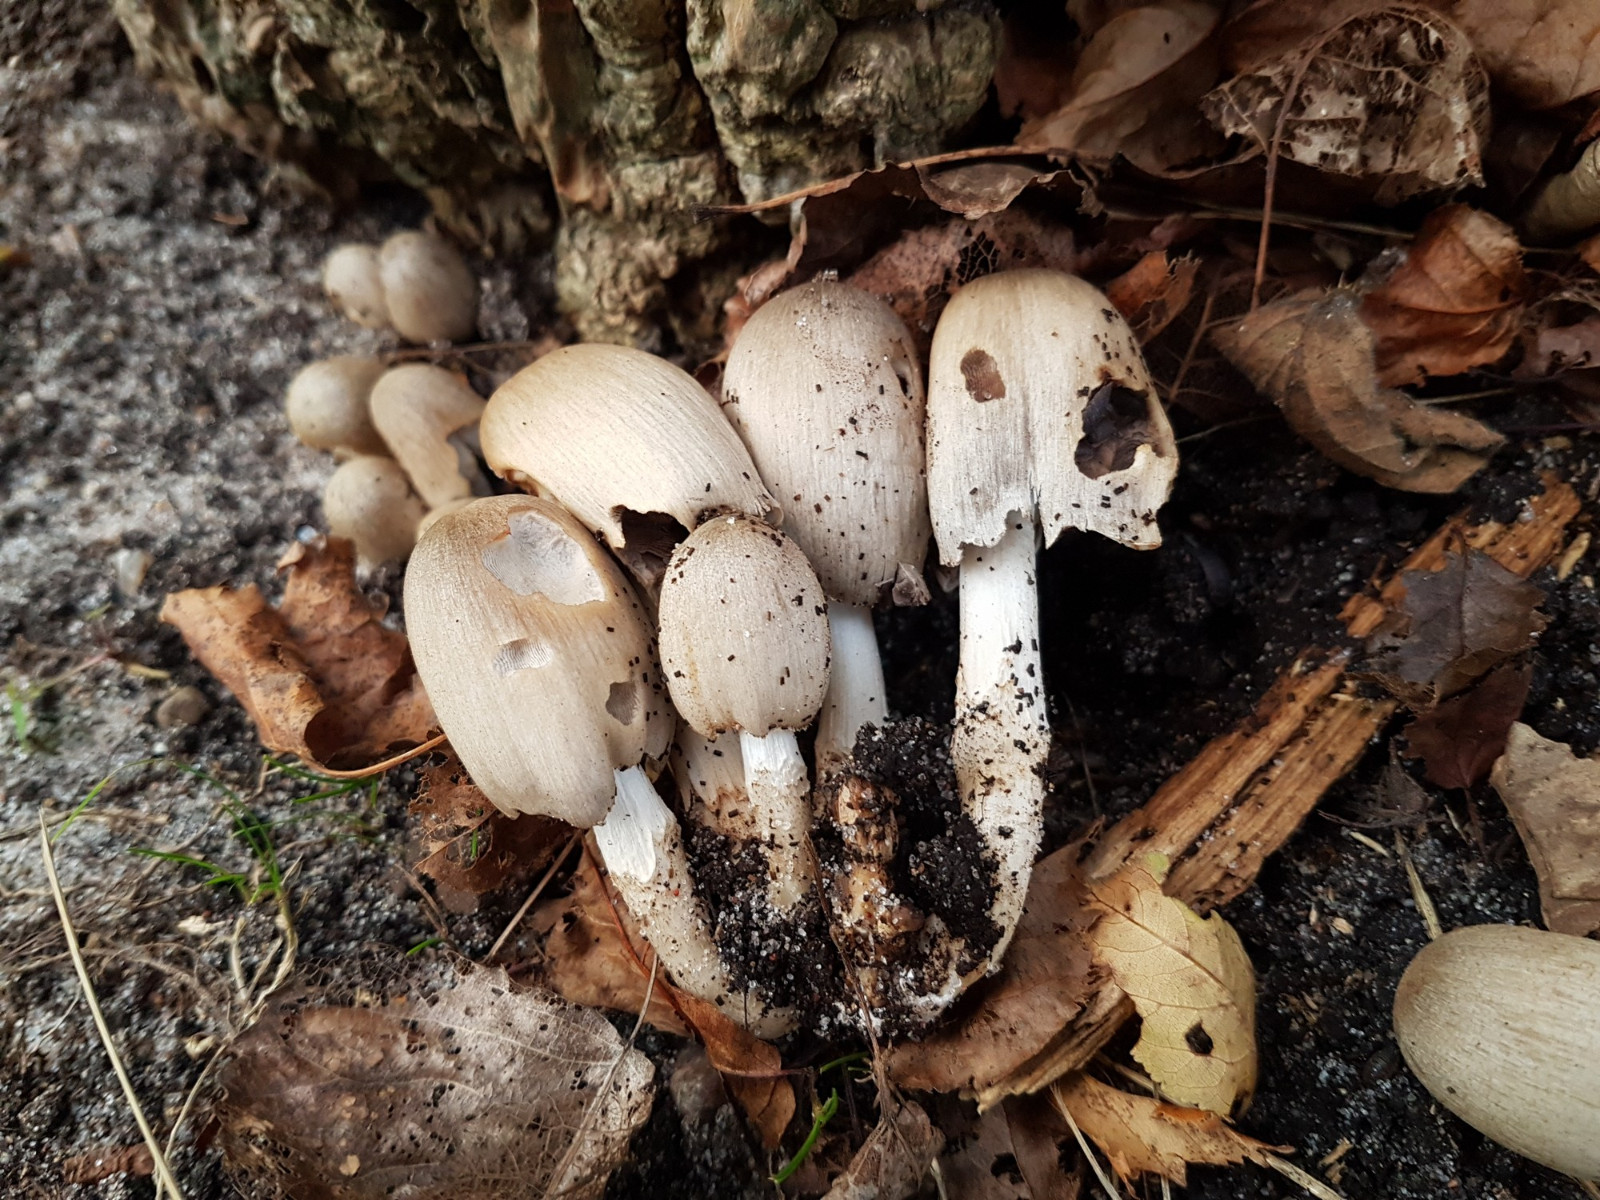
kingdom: Fungi
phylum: Basidiomycota
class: Agaricomycetes
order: Agaricales
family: Psathyrellaceae
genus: Coprinopsis
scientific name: Coprinopsis atramentaria
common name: almindelig blækhat
